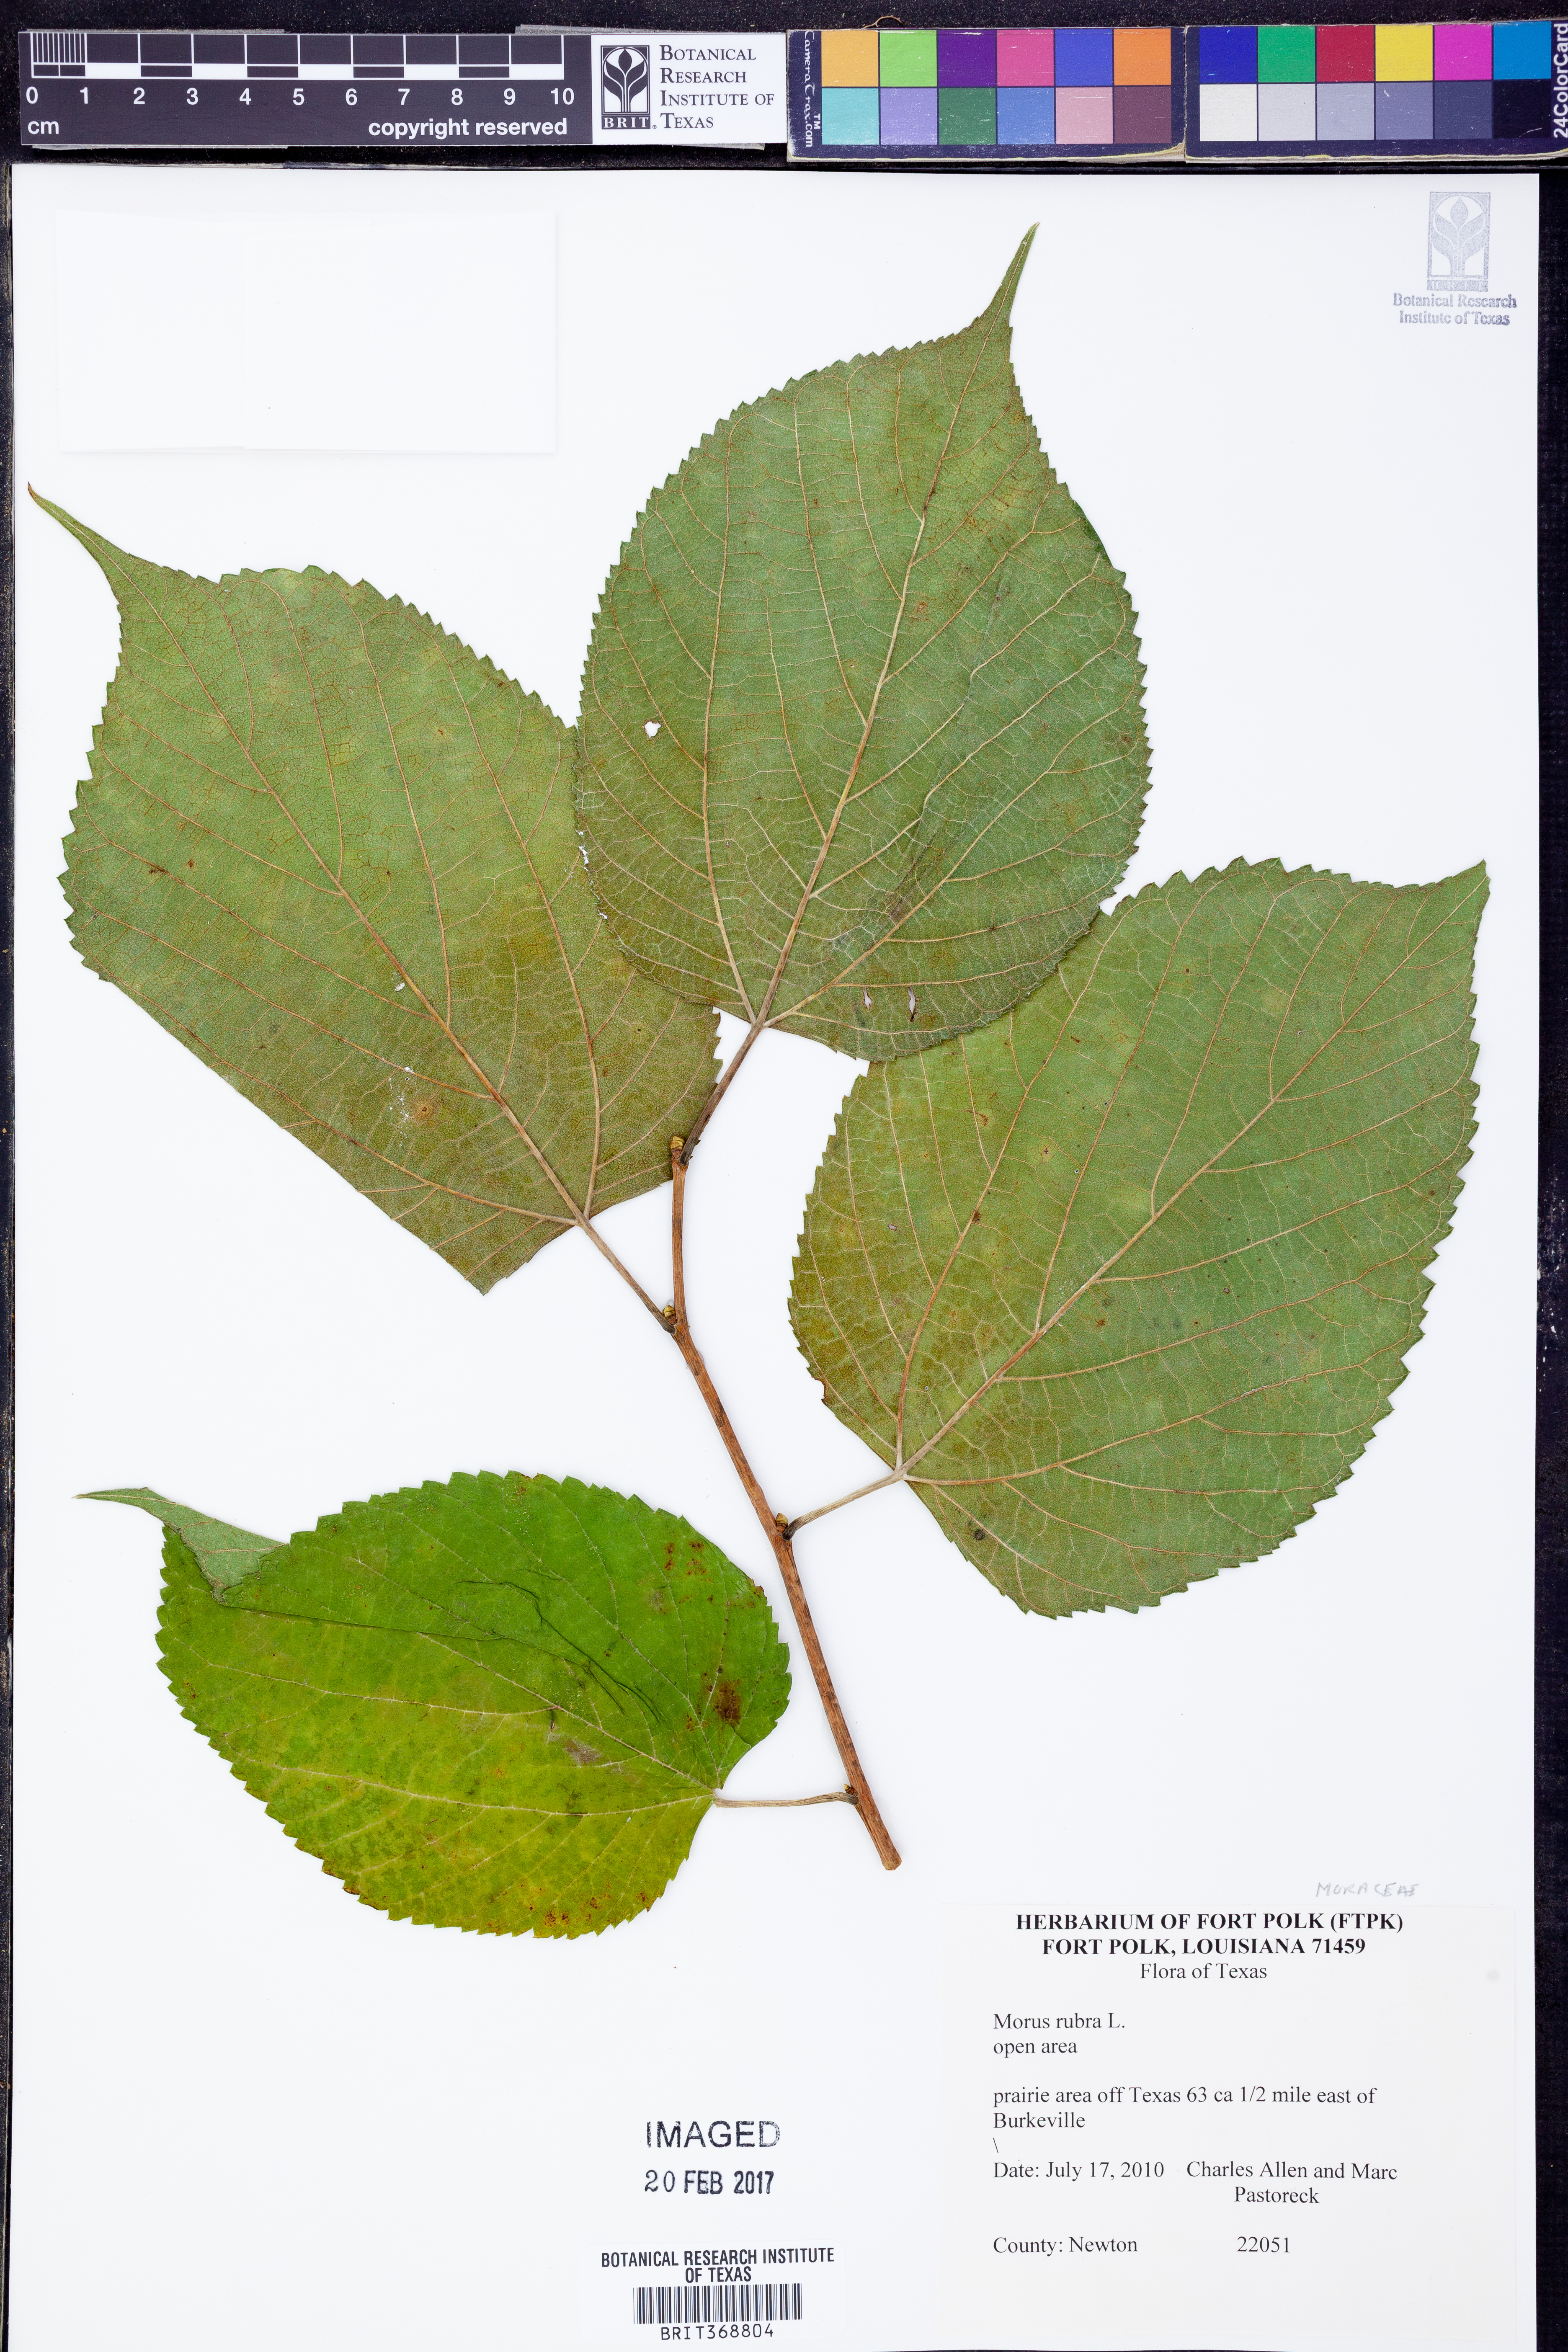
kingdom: Plantae
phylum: Tracheophyta
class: Magnoliopsida
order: Rosales
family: Moraceae
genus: Morus
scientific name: Morus rubra
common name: Red mulberry
